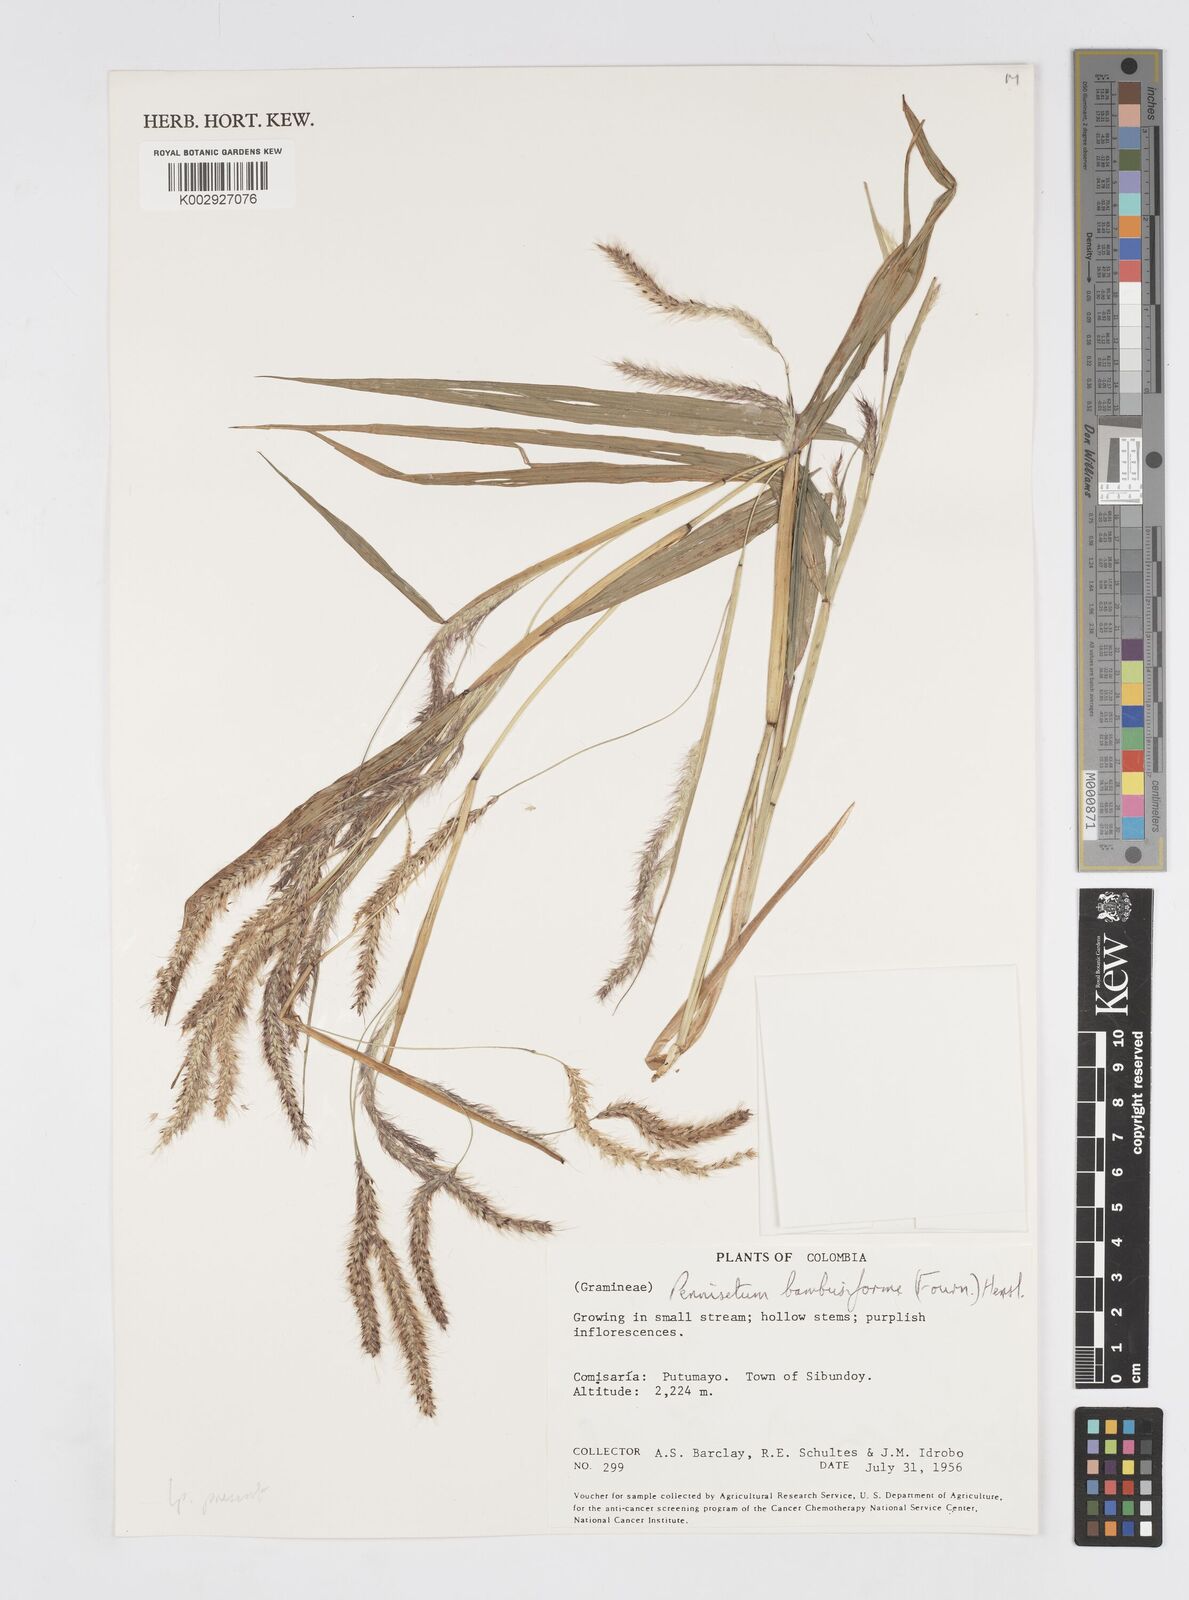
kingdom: Plantae
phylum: Tracheophyta
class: Liliopsida
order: Poales
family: Poaceae
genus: Cenchrus
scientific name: Cenchrus tristachyus
